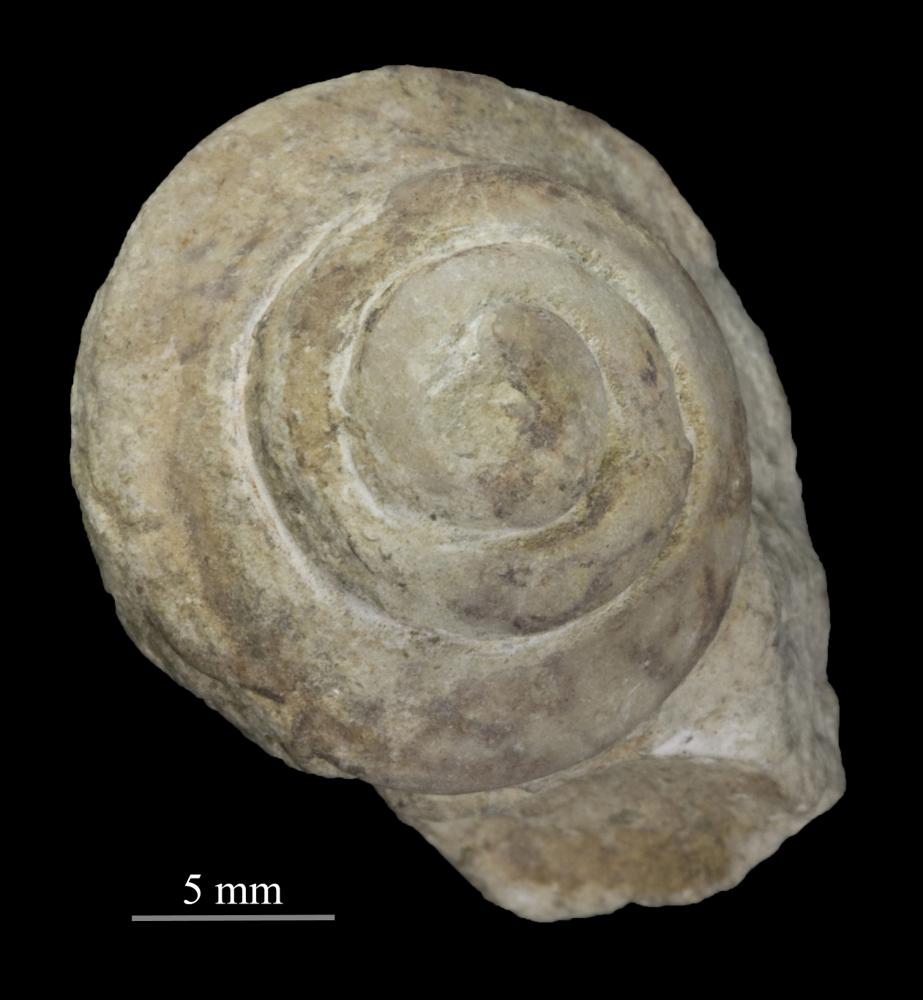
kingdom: Animalia
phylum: Mollusca
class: Gastropoda
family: Lophospiridae
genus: Loxoplocus
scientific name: Loxoplocus Turbo silurica
